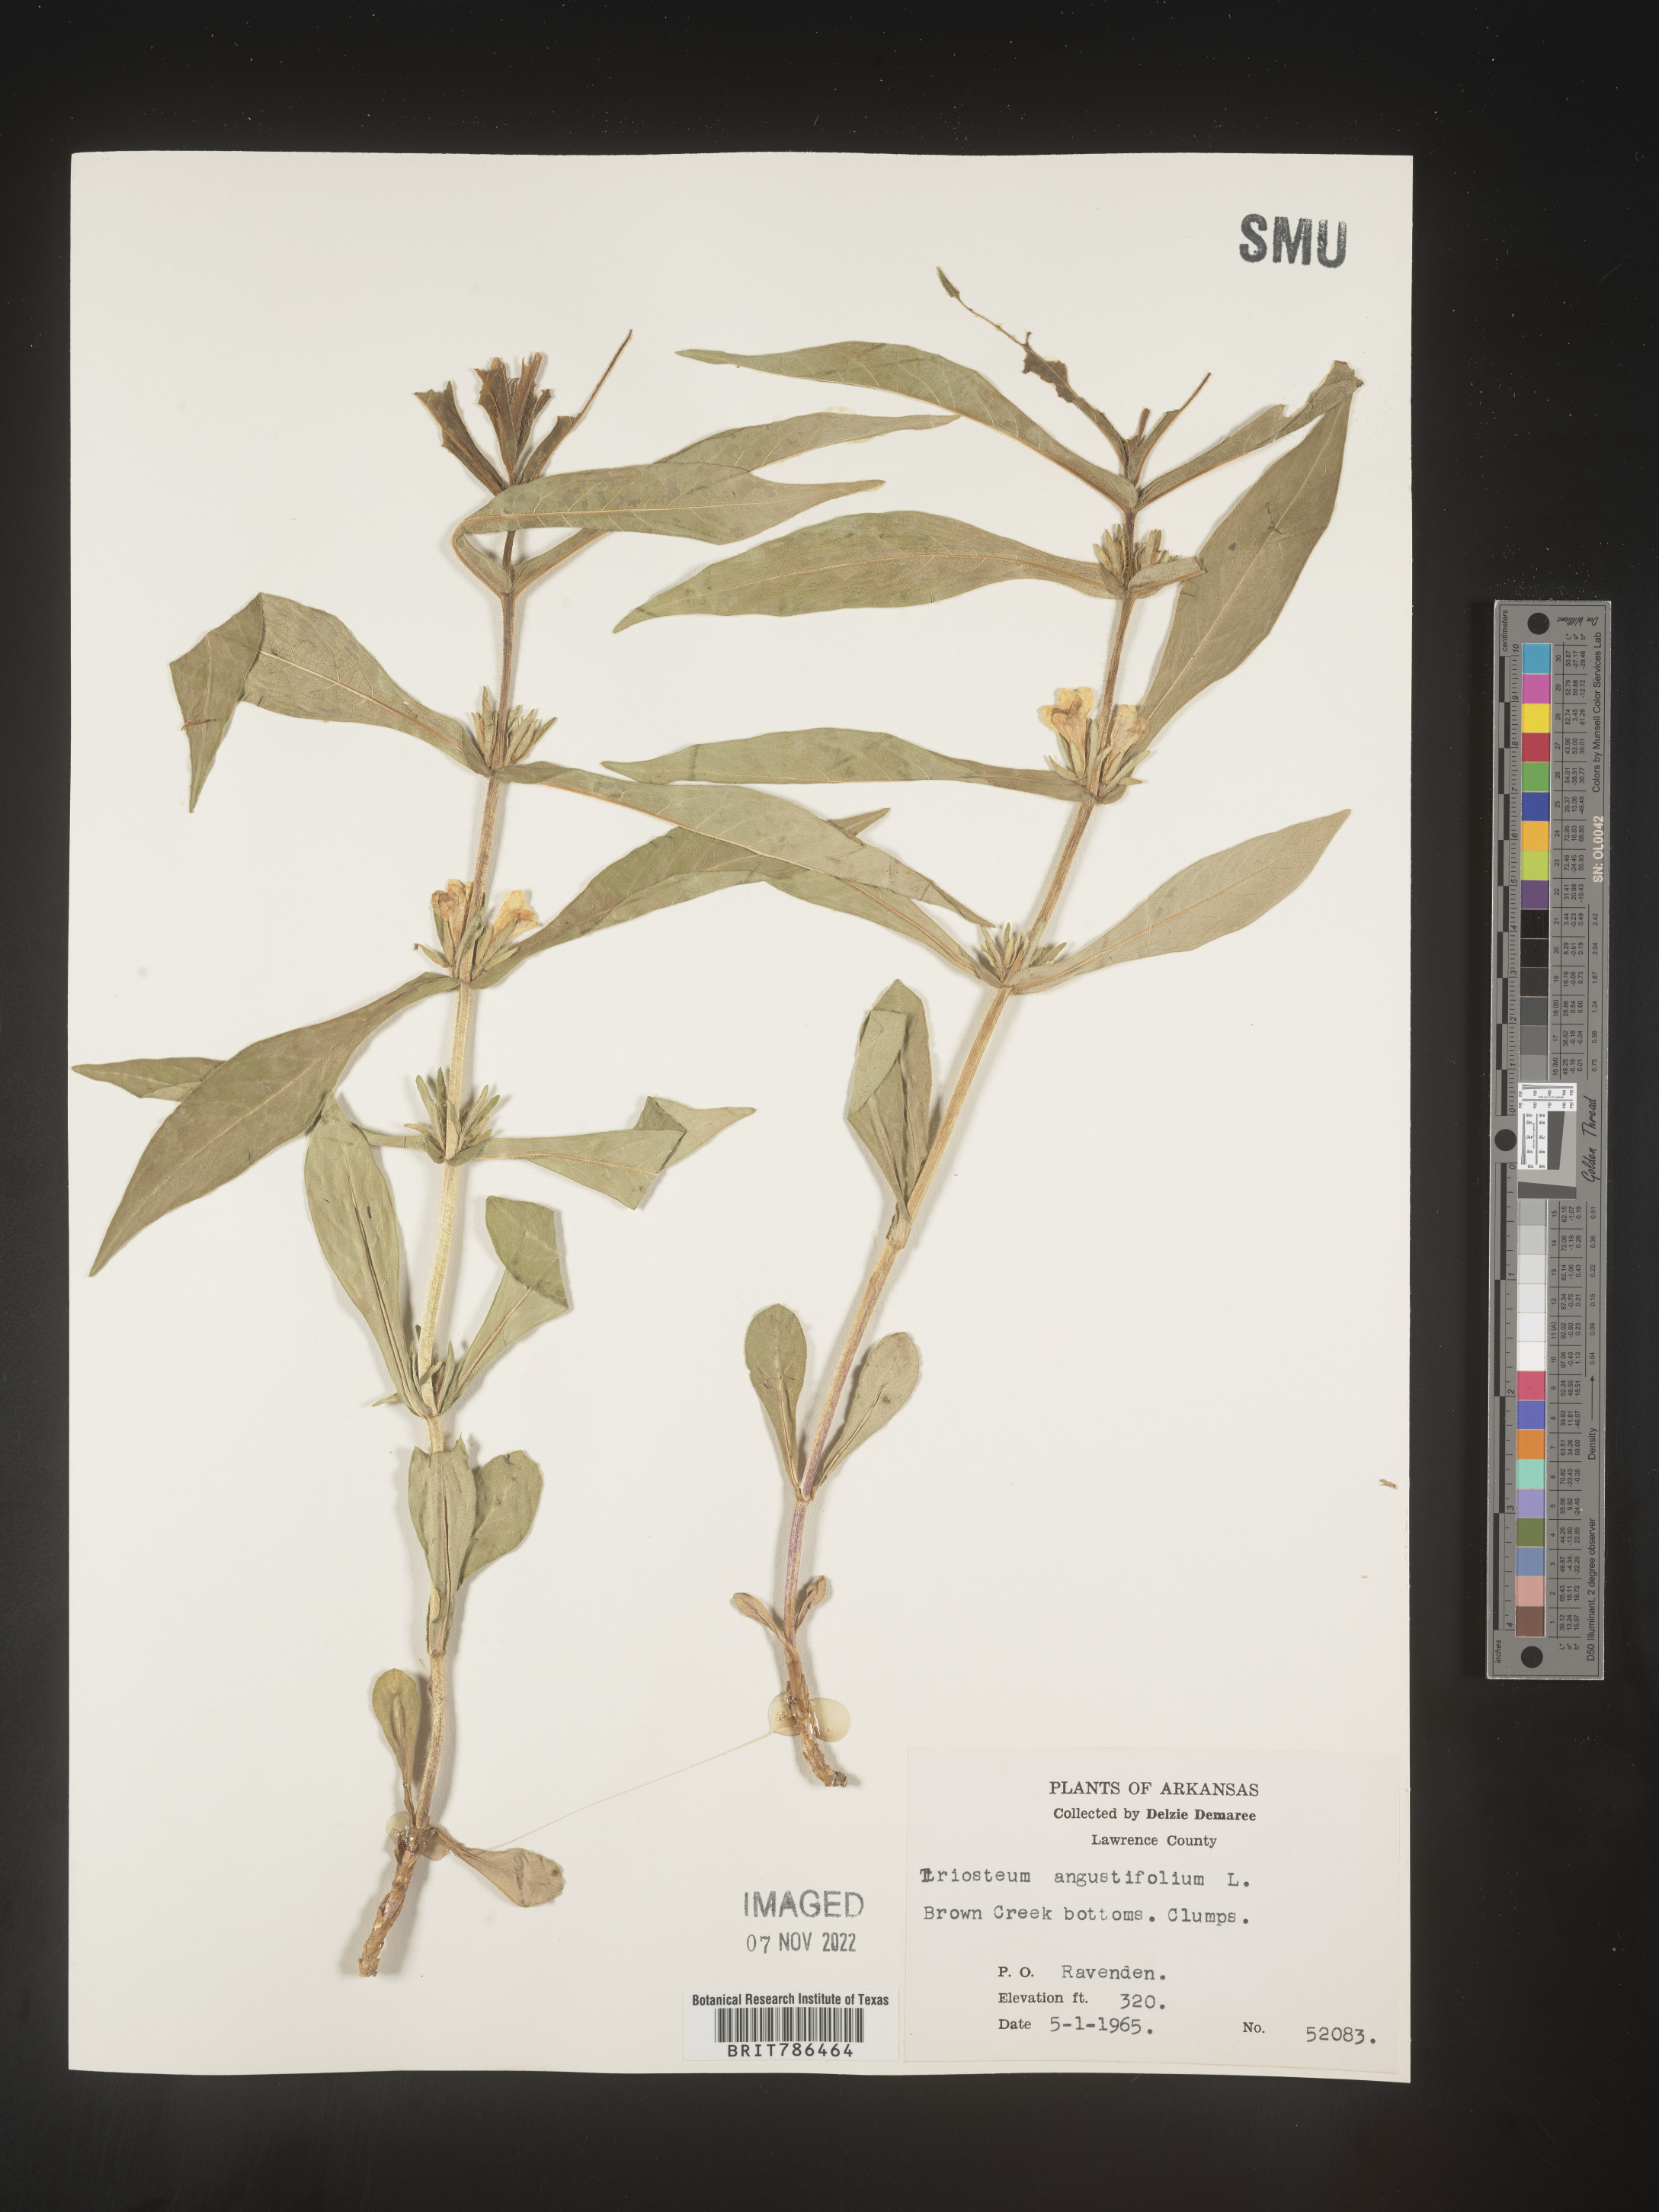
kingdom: Plantae
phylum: Tracheophyta
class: Magnoliopsida
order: Dipsacales
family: Caprifoliaceae
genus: Triosteum
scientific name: Triosteum angustifolium
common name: Narrow-leaved horse-gentian
